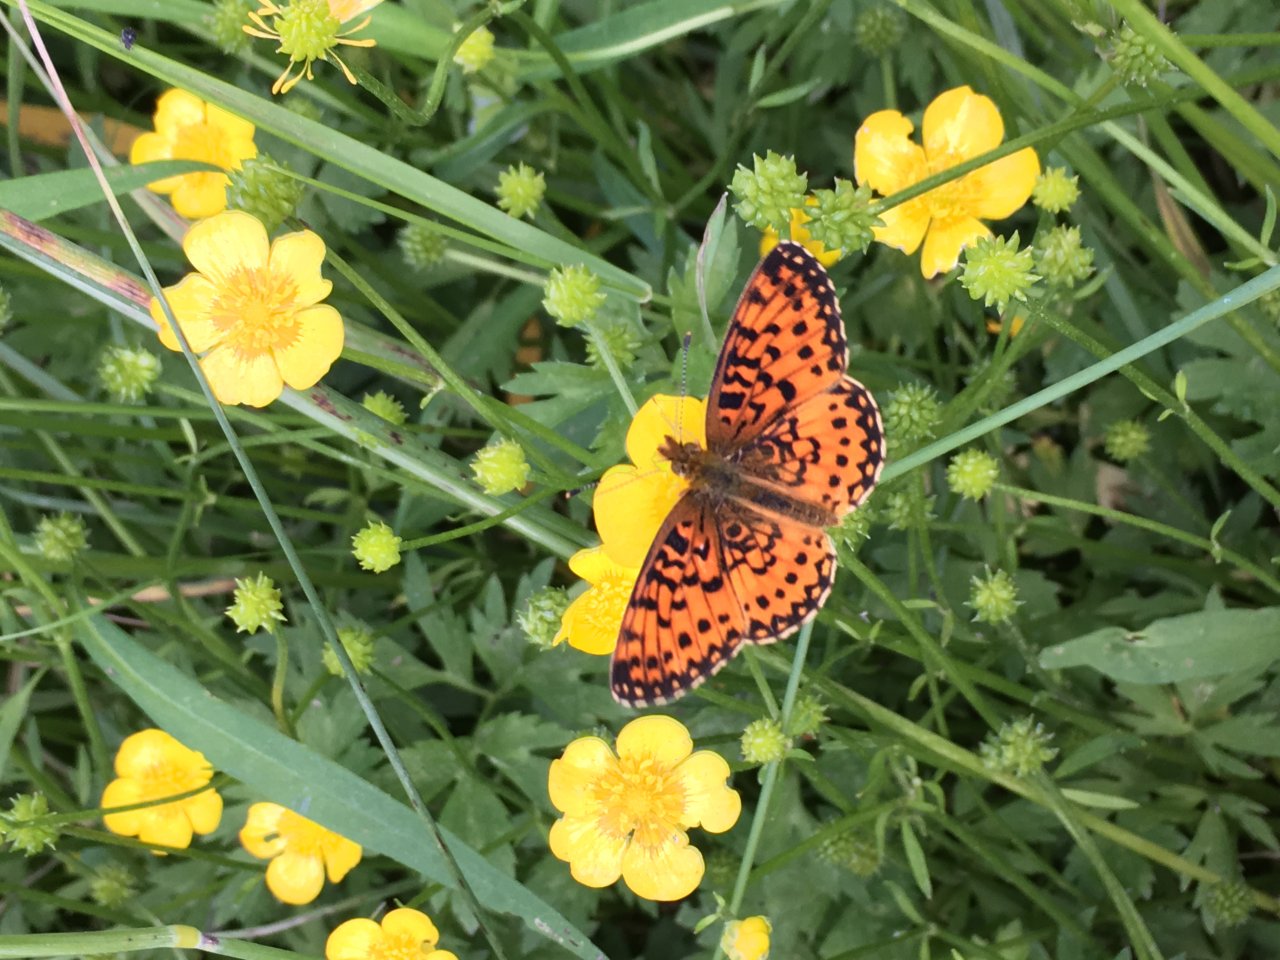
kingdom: Animalia
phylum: Arthropoda
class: Insecta
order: Lepidoptera
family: Nymphalidae
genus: Boloria
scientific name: Boloria selene
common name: Silver-bordered Fritillary
